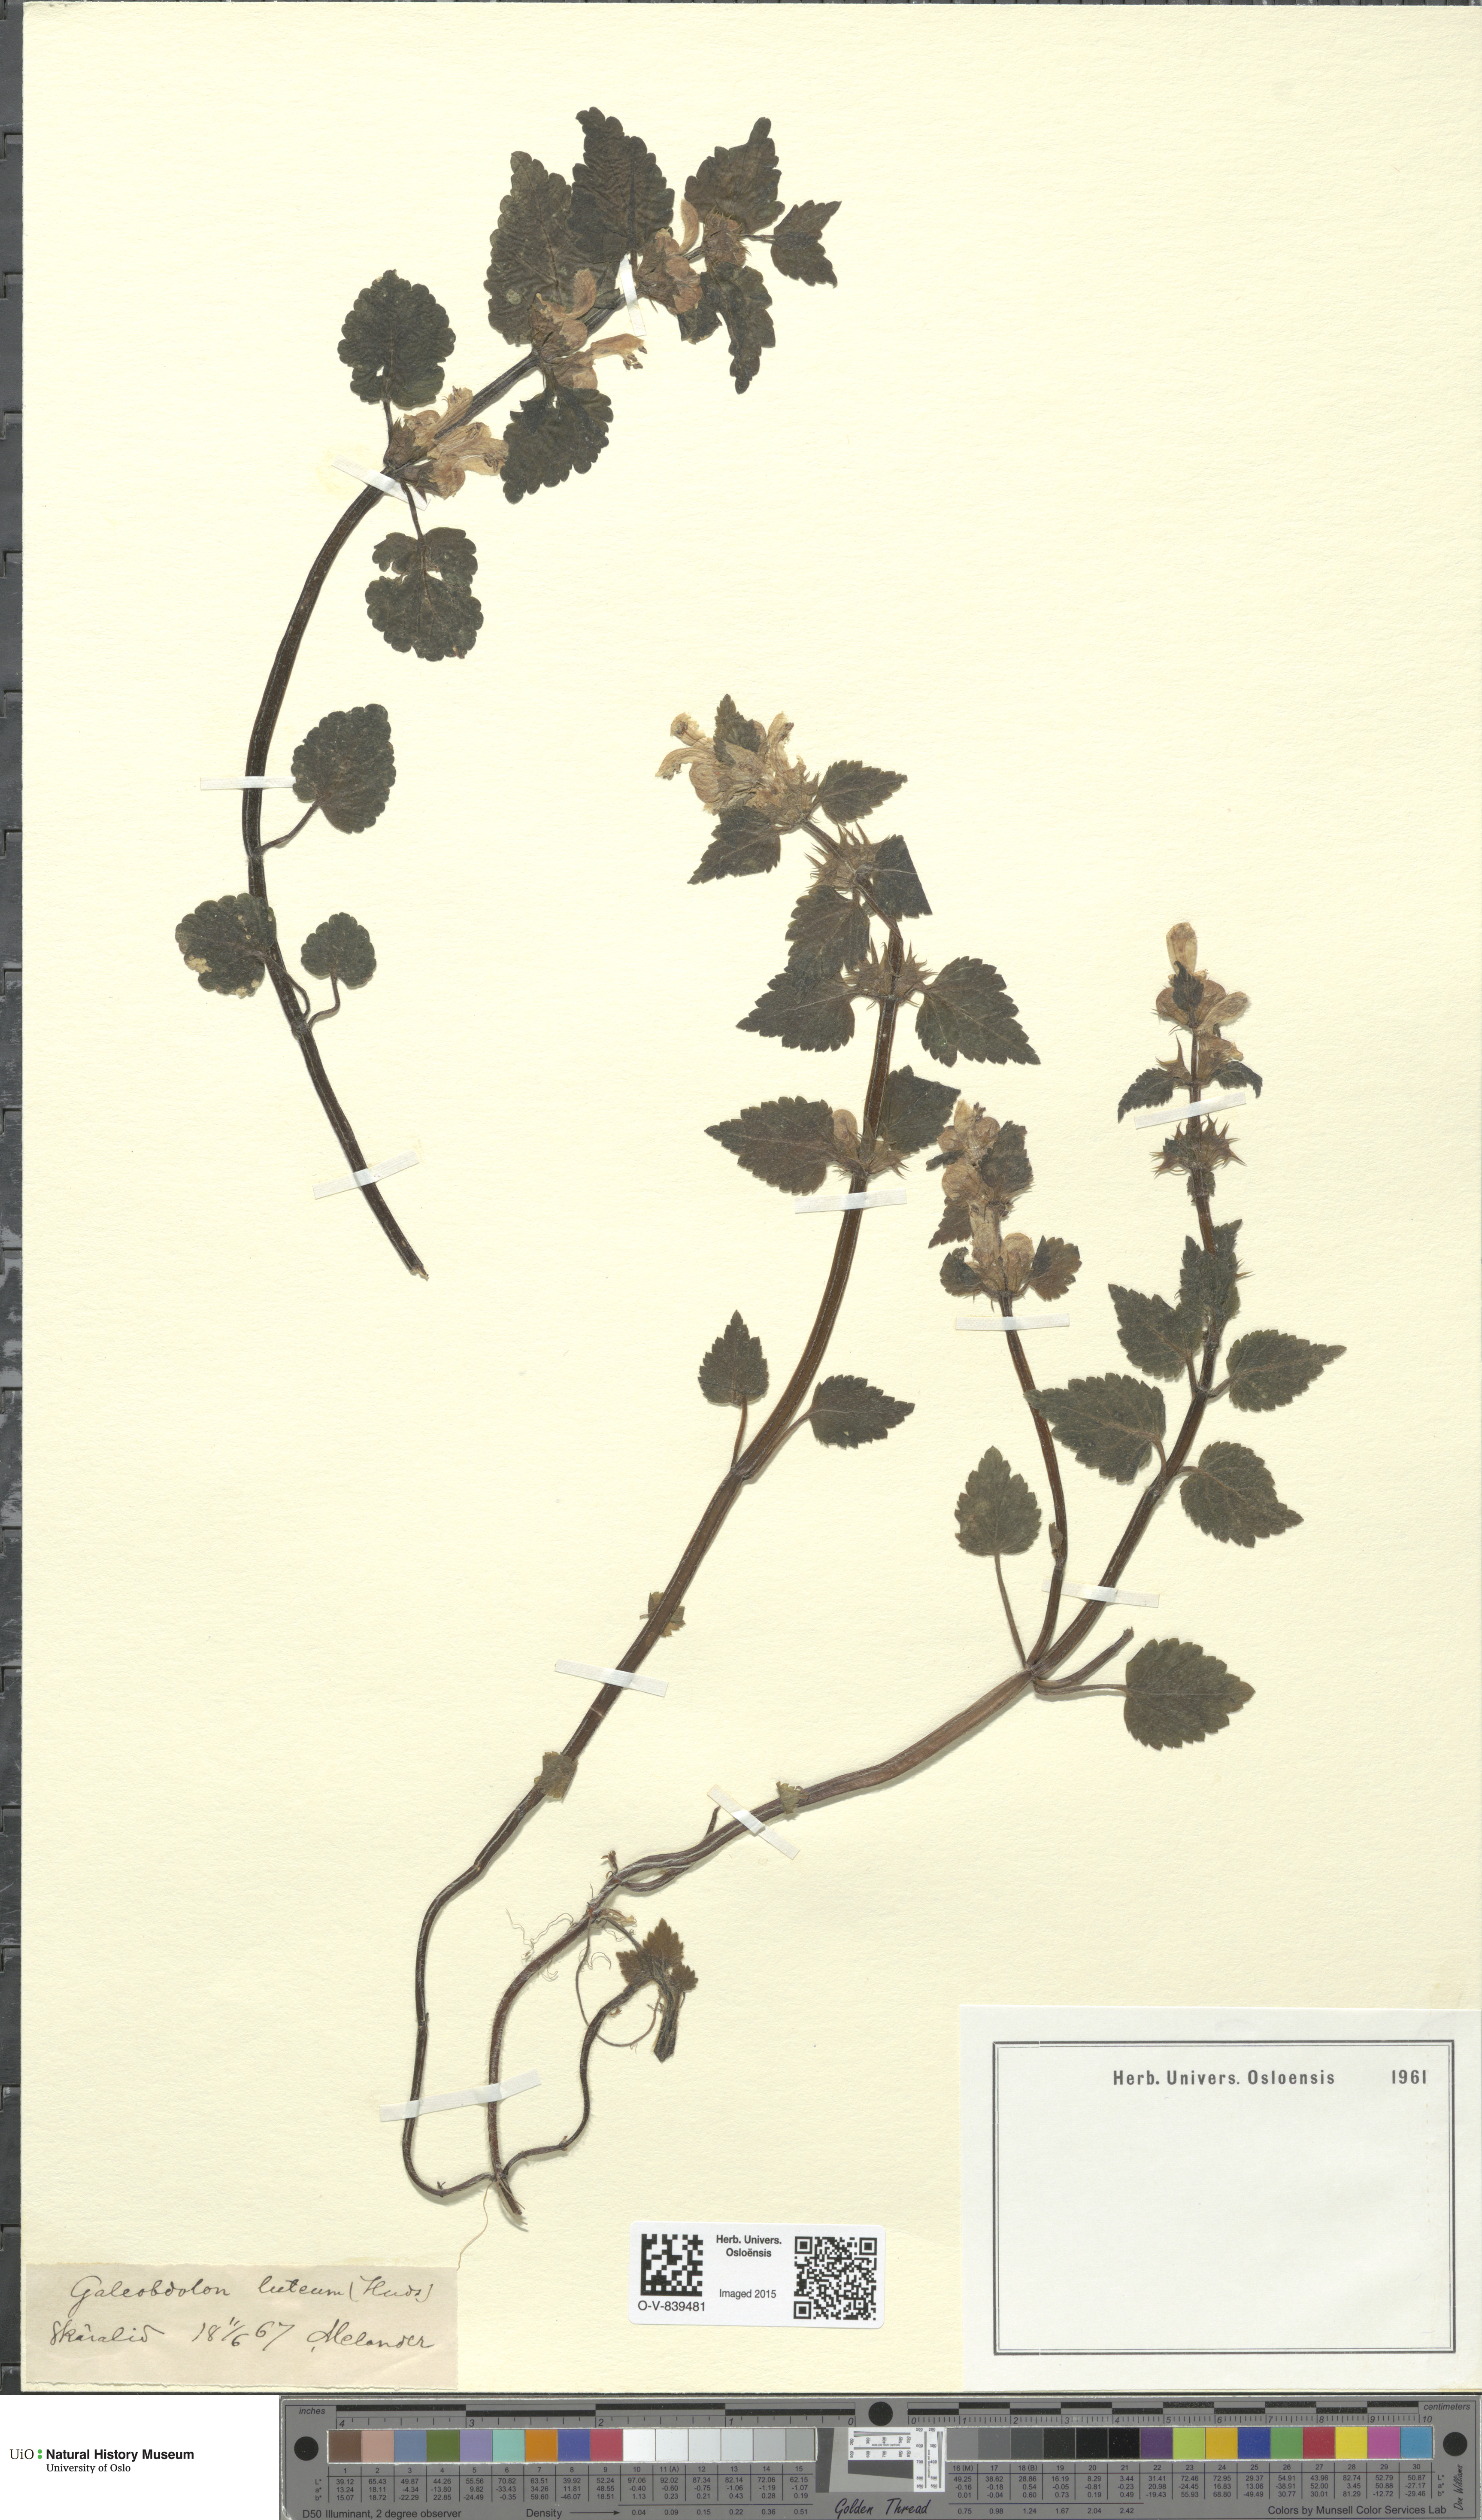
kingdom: Plantae
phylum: Tracheophyta
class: Magnoliopsida
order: Lamiales
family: Lamiaceae
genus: Lamium
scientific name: Lamium galeobdolon
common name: Yellow archangel
